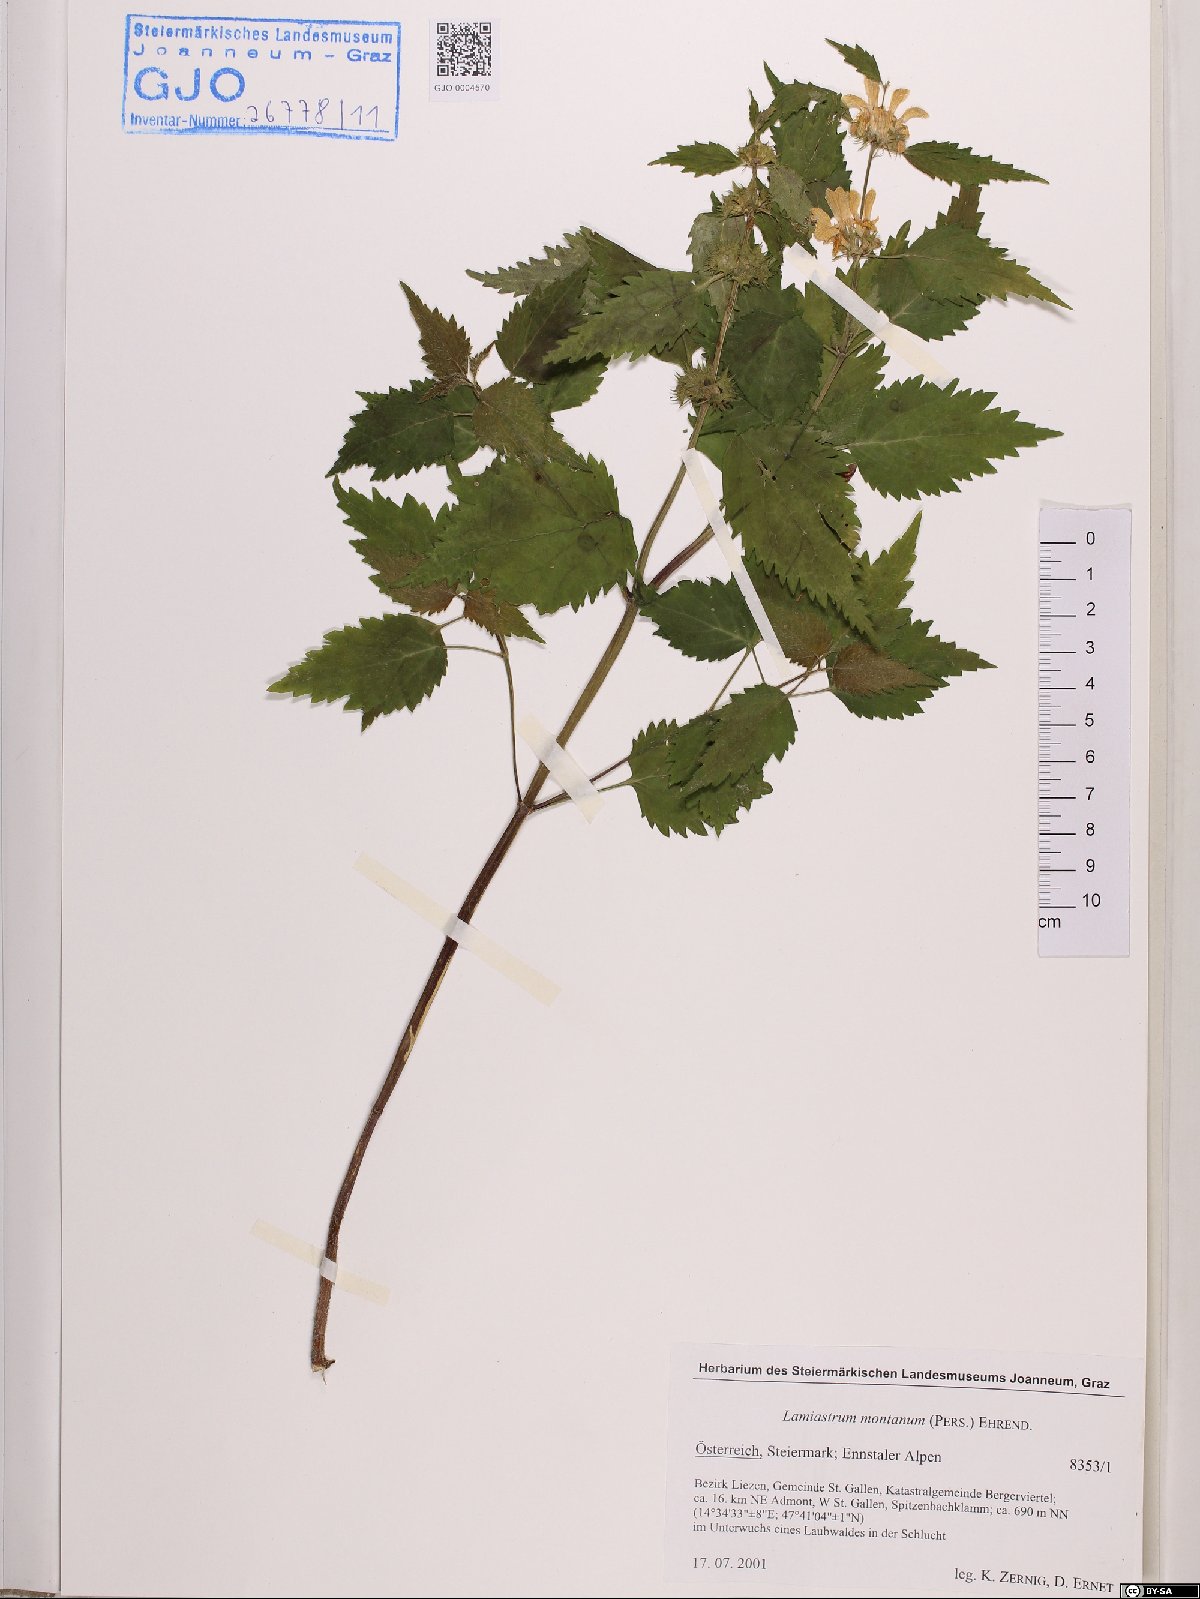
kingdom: Plantae
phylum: Tracheophyta
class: Magnoliopsida
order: Lamiales
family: Lamiaceae
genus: Lamium
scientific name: Lamium galeobdolon
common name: Yellow archangel
